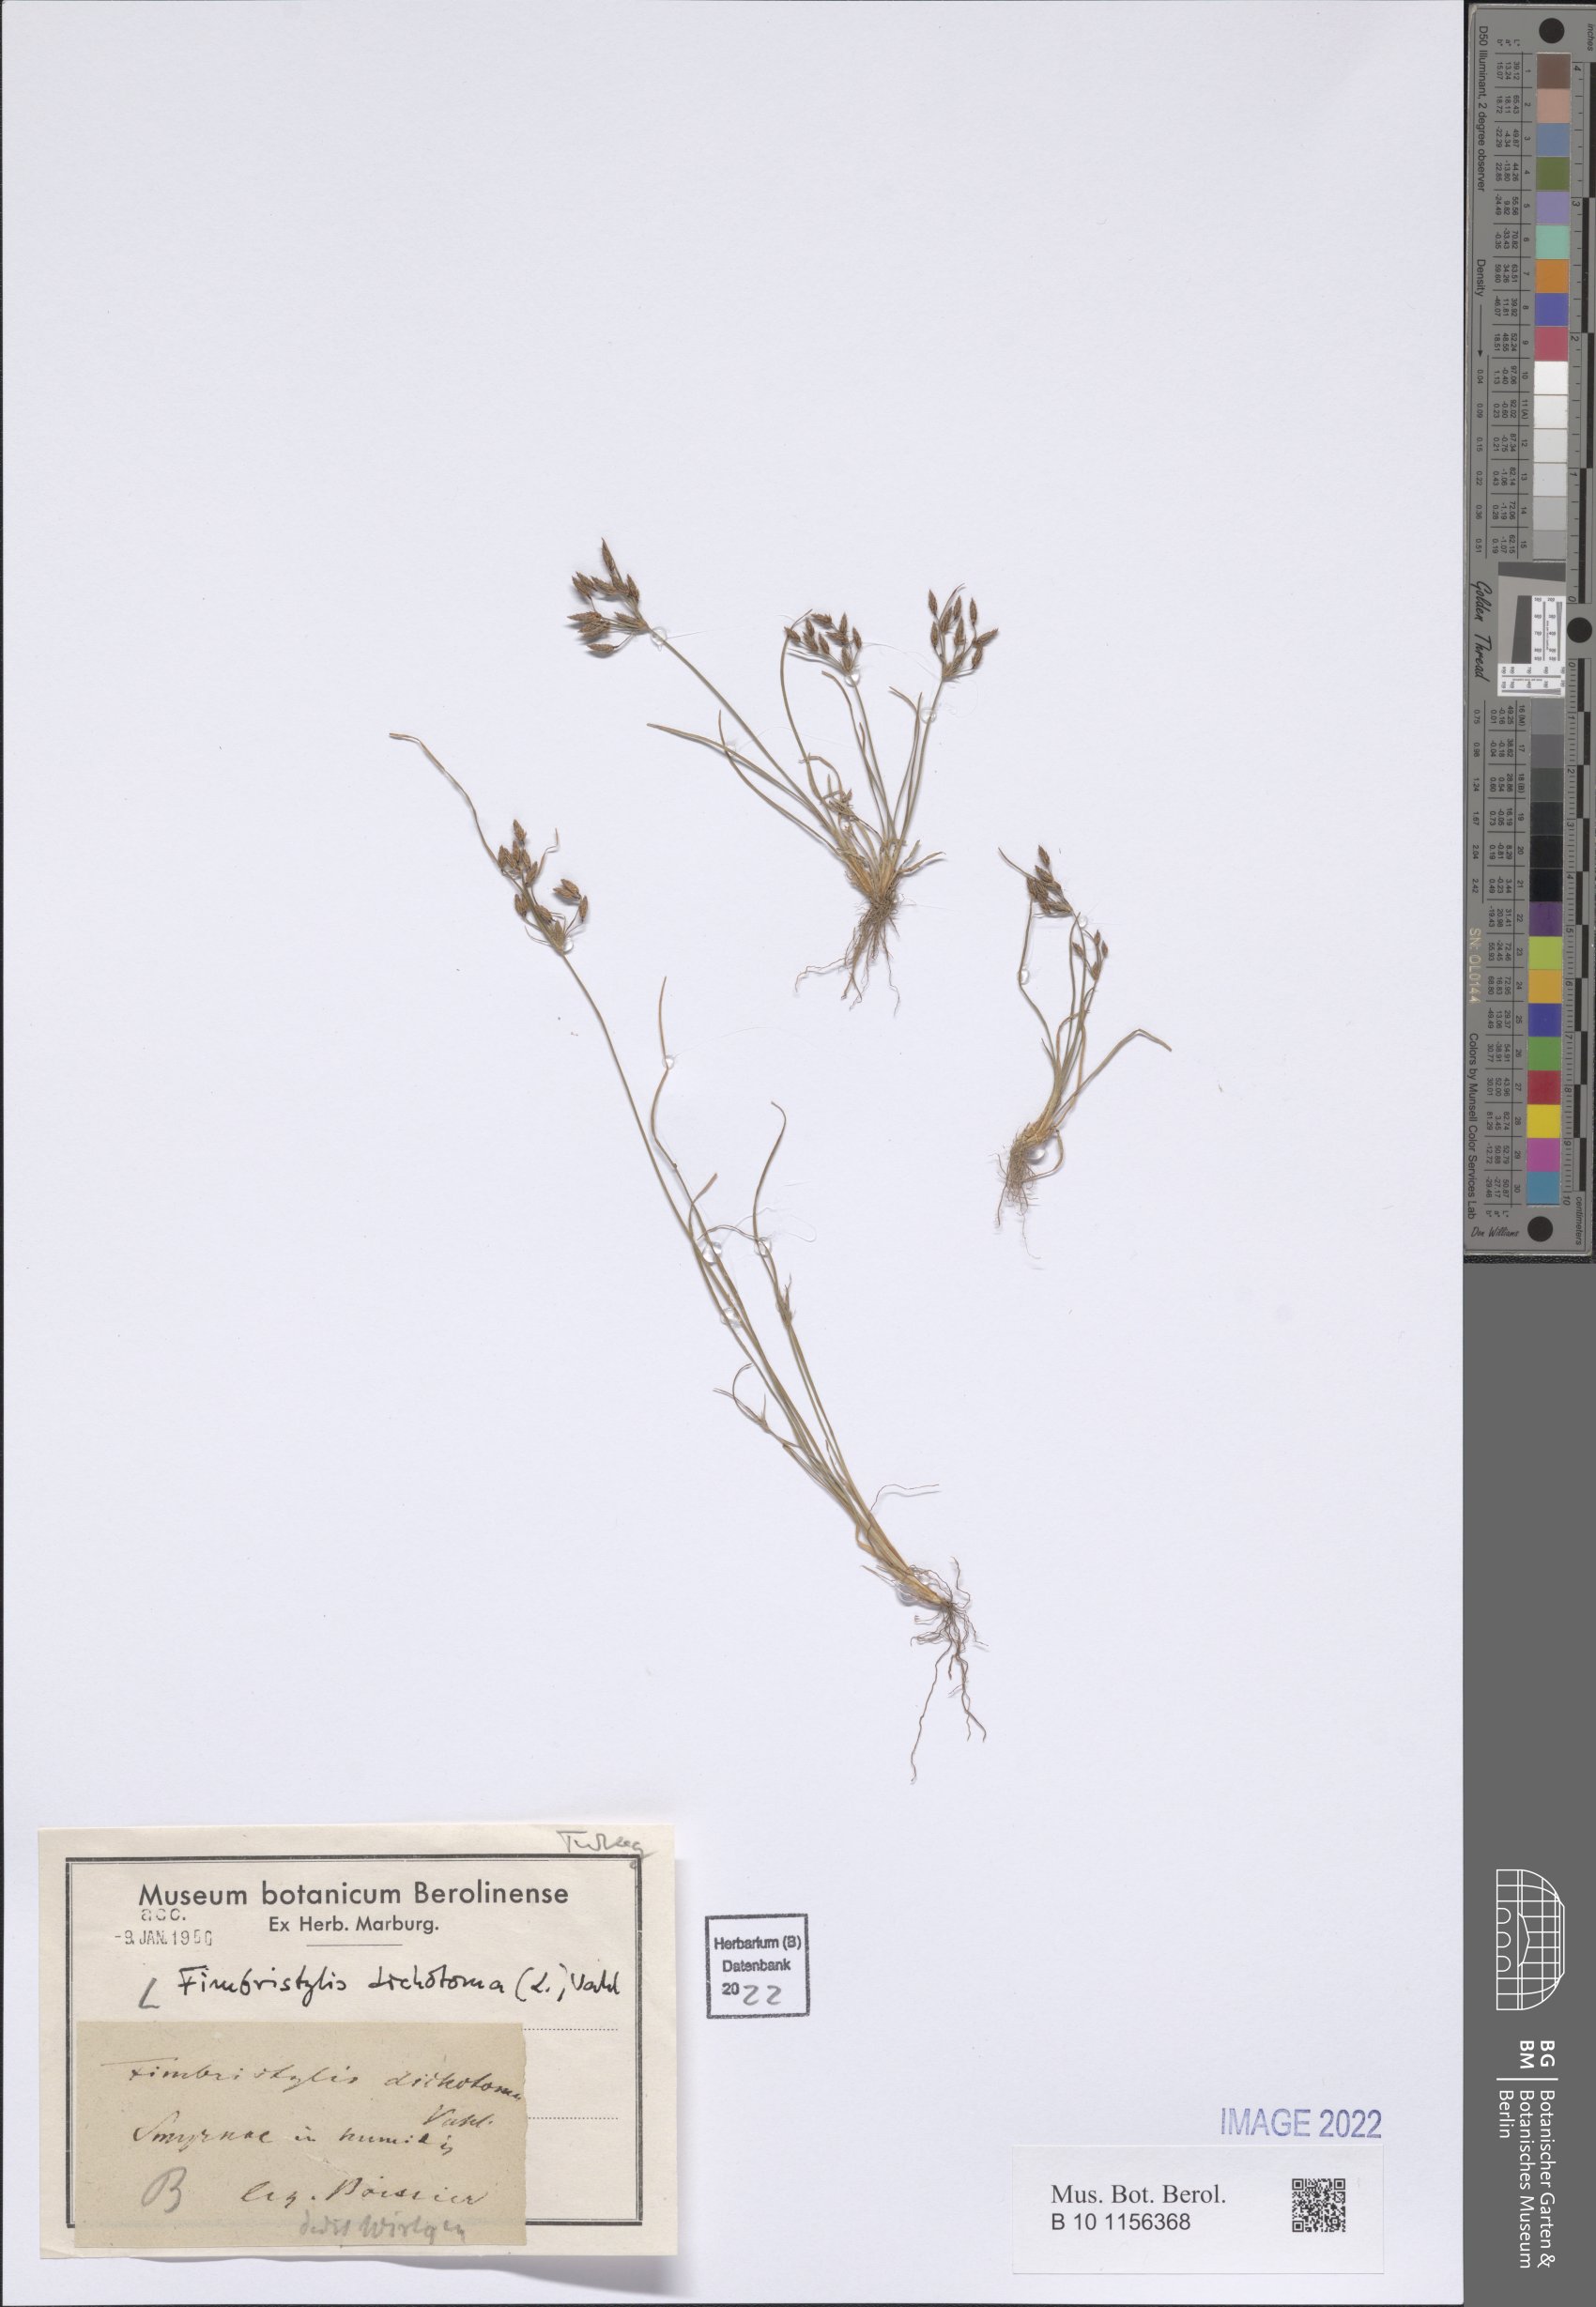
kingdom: Plantae
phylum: Tracheophyta
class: Liliopsida
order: Poales
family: Cyperaceae
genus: Fimbristylis
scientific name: Fimbristylis dichotoma
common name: Forked fimbry
